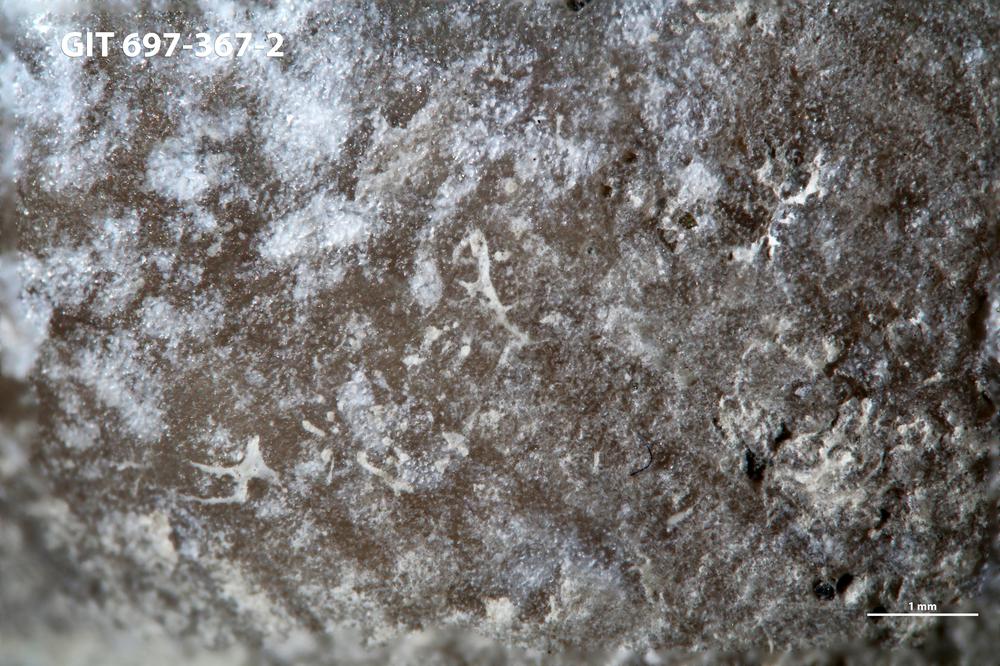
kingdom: Animalia
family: Dendrinidae
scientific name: Dendrinidae
